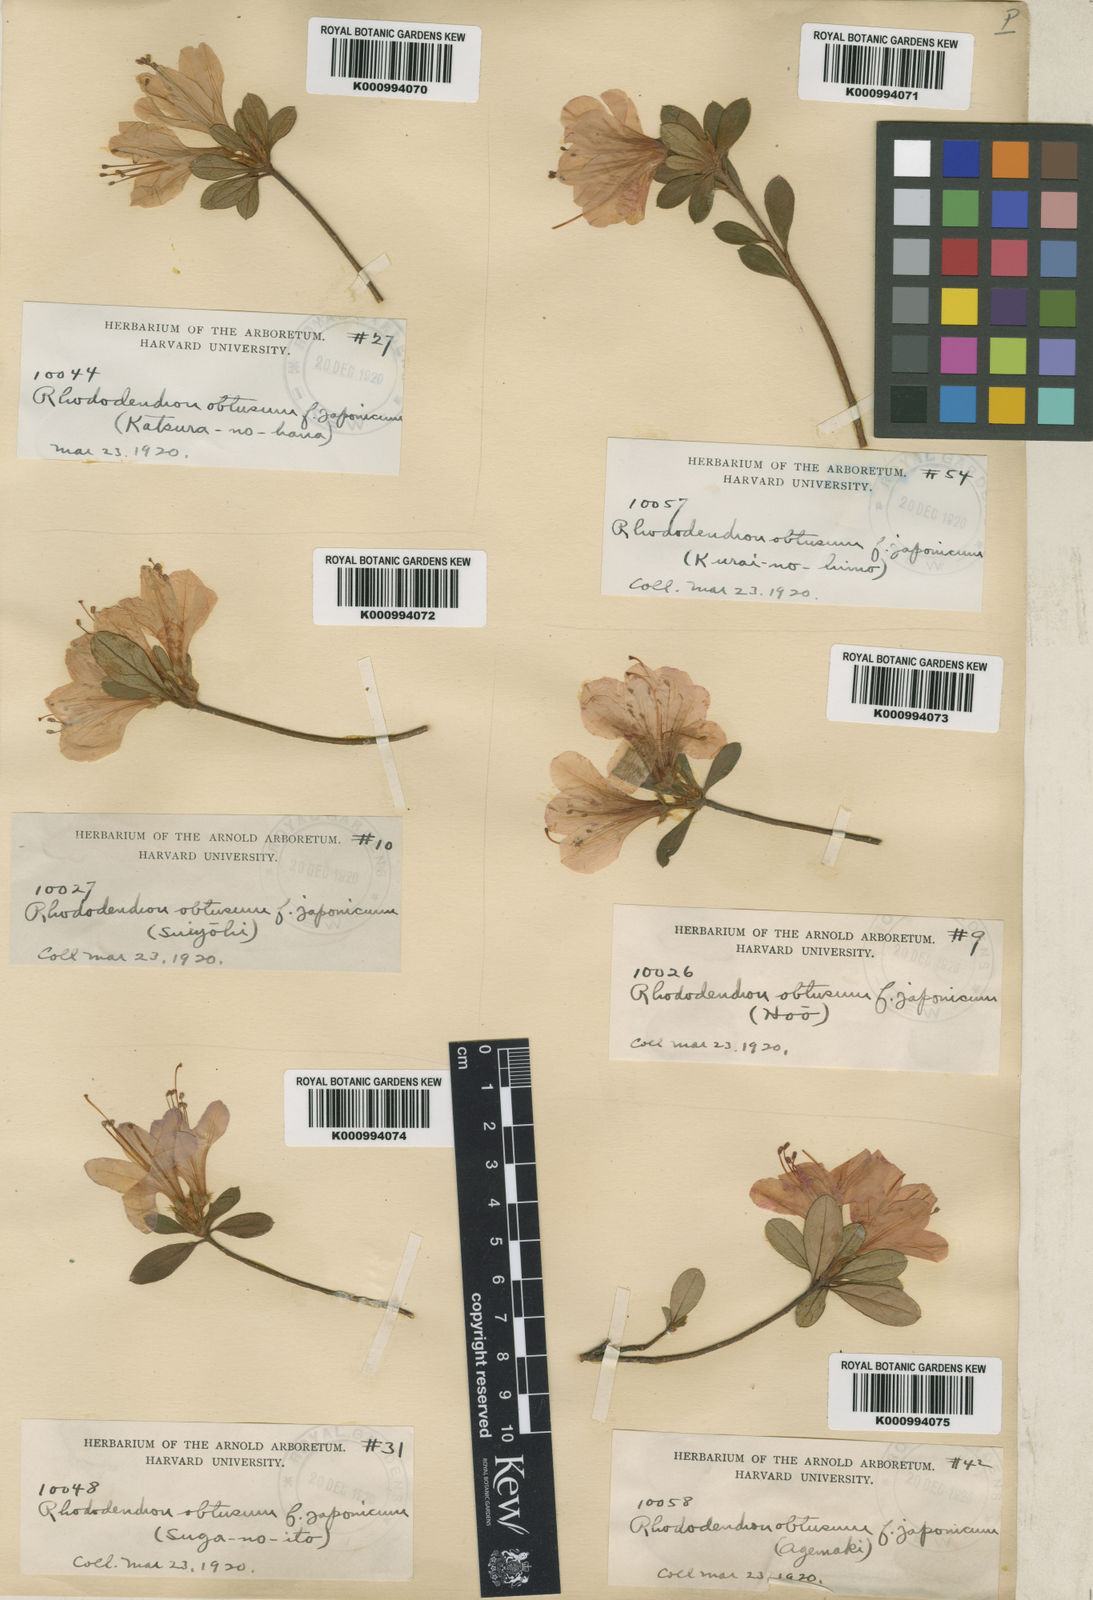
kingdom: Plantae
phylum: Tracheophyta
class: Magnoliopsida
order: Ericales
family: Ericaceae
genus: Rhododendron
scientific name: Rhododendron kiusianum
